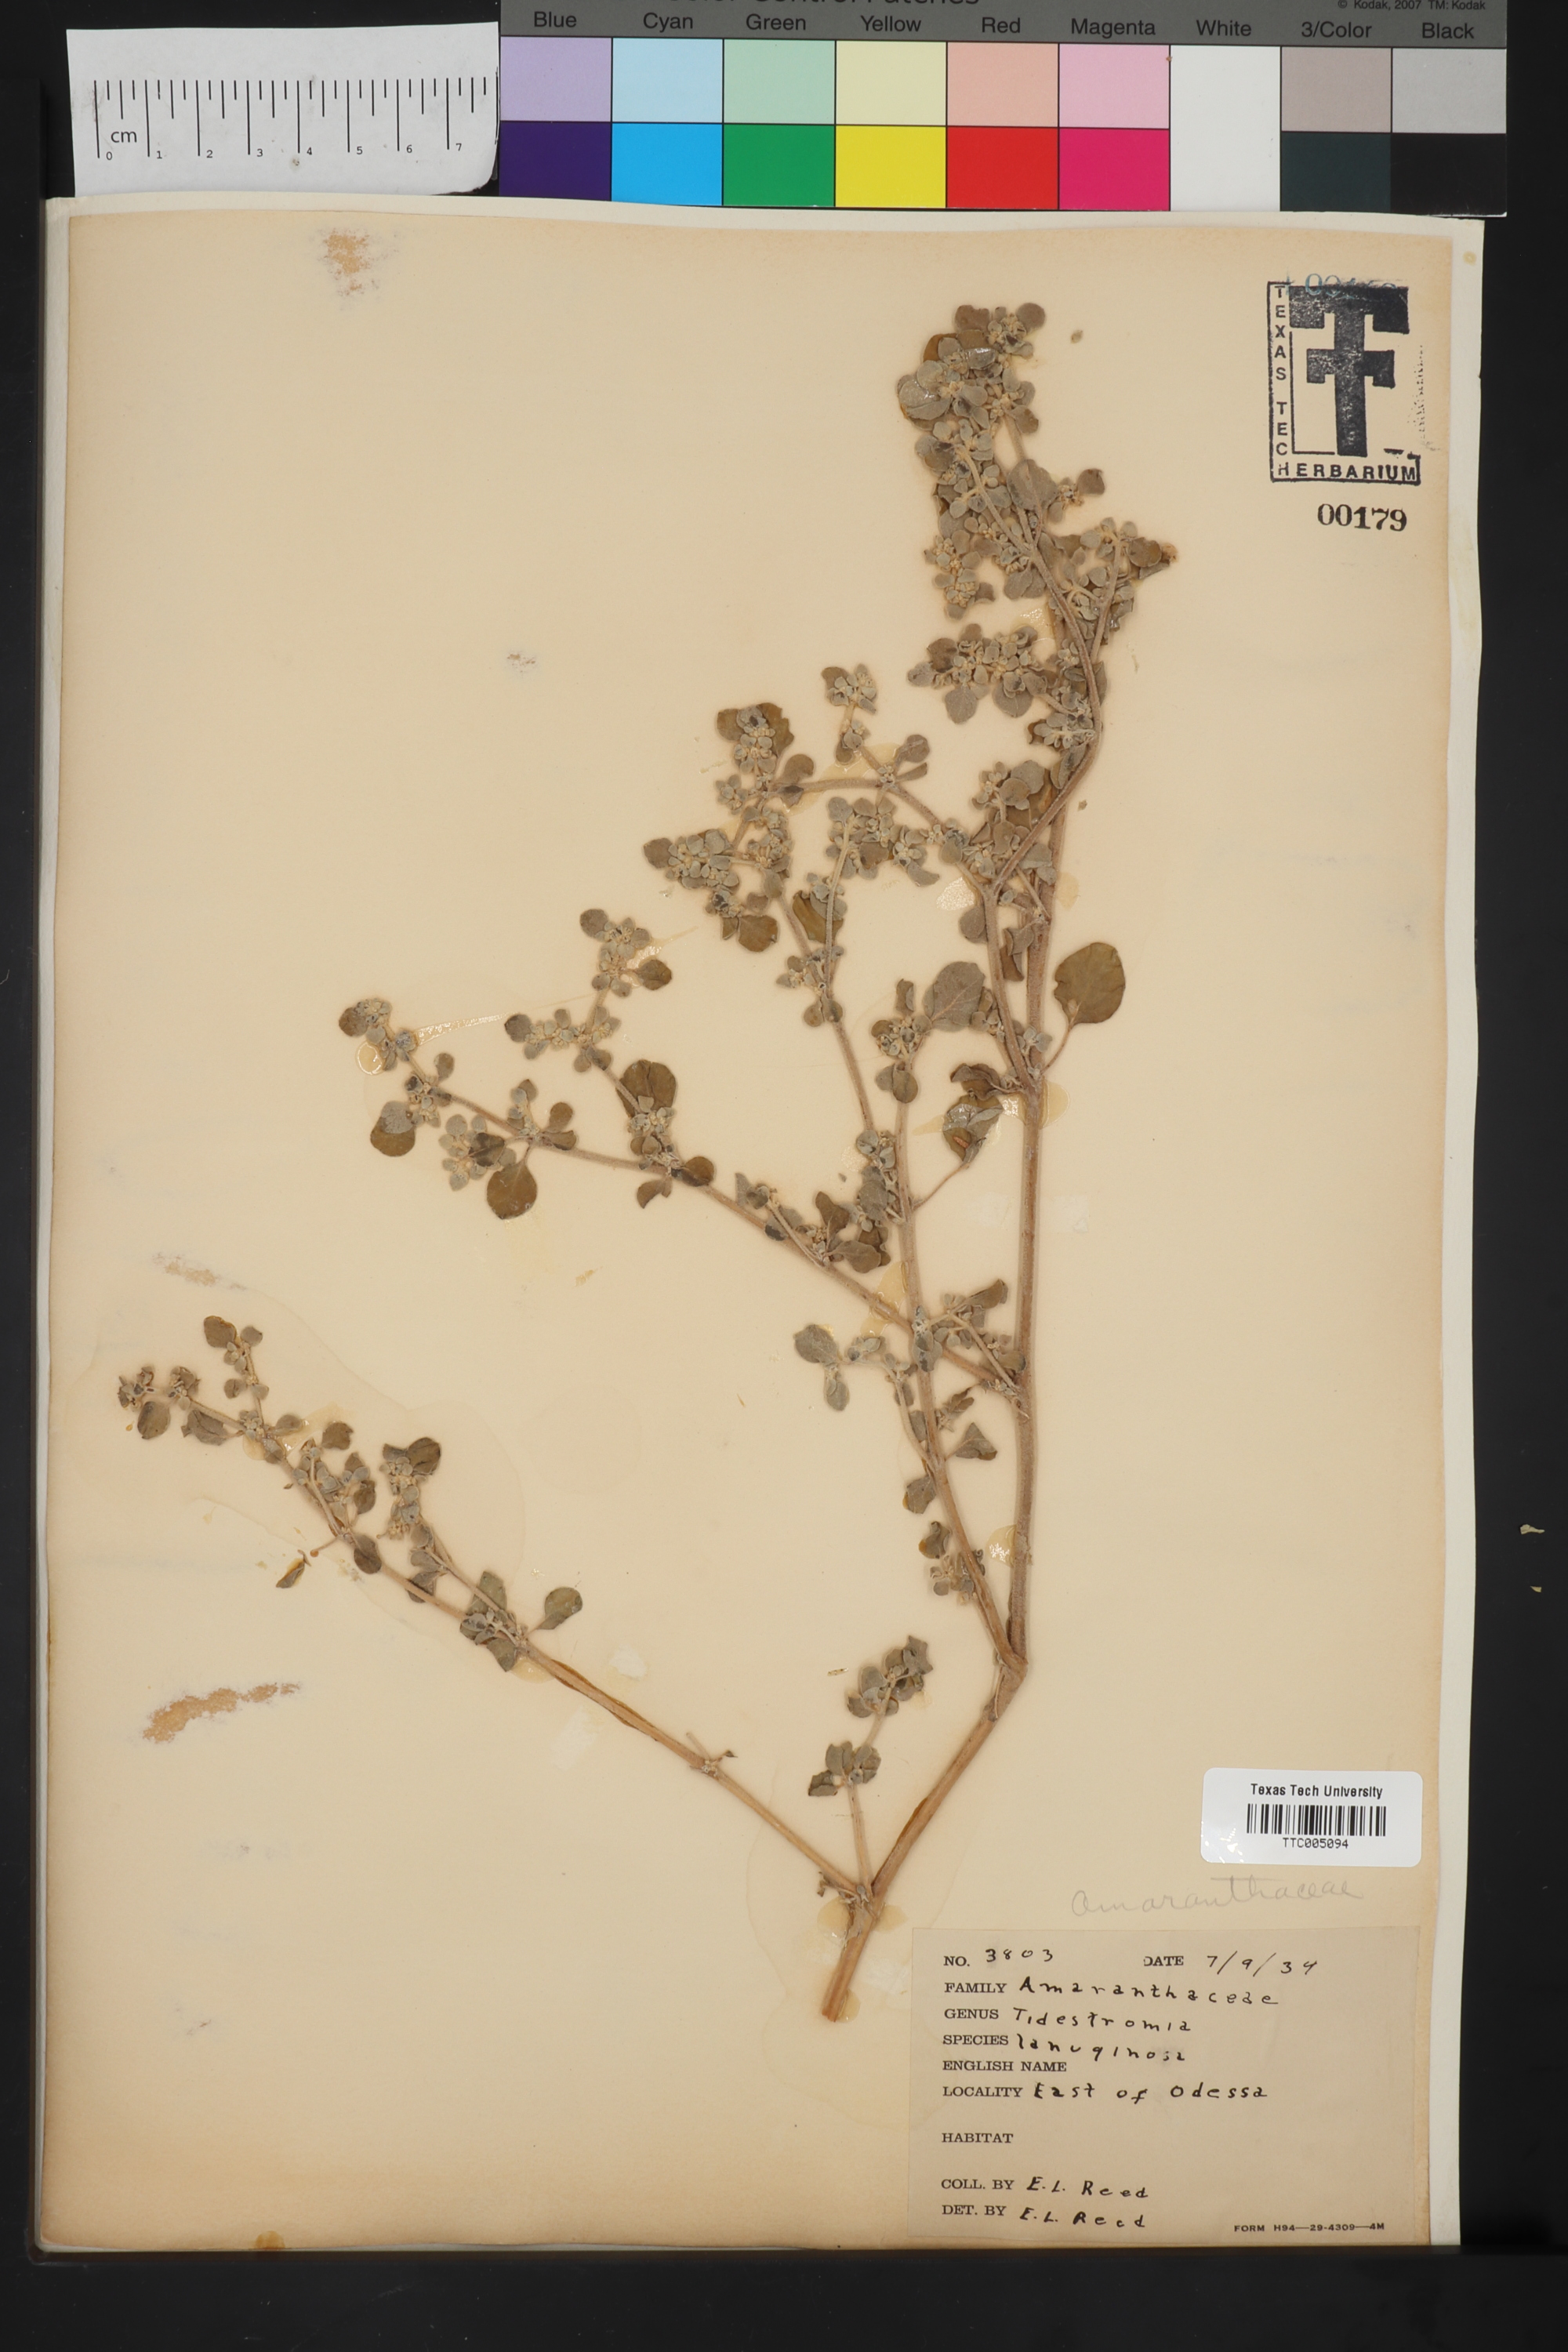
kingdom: Plantae
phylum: Tracheophyta
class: Magnoliopsida
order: Caryophyllales
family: Amaranthaceae
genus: Tidestromia
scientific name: Tidestromia lanuginosa
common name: Woolly tidestromia
